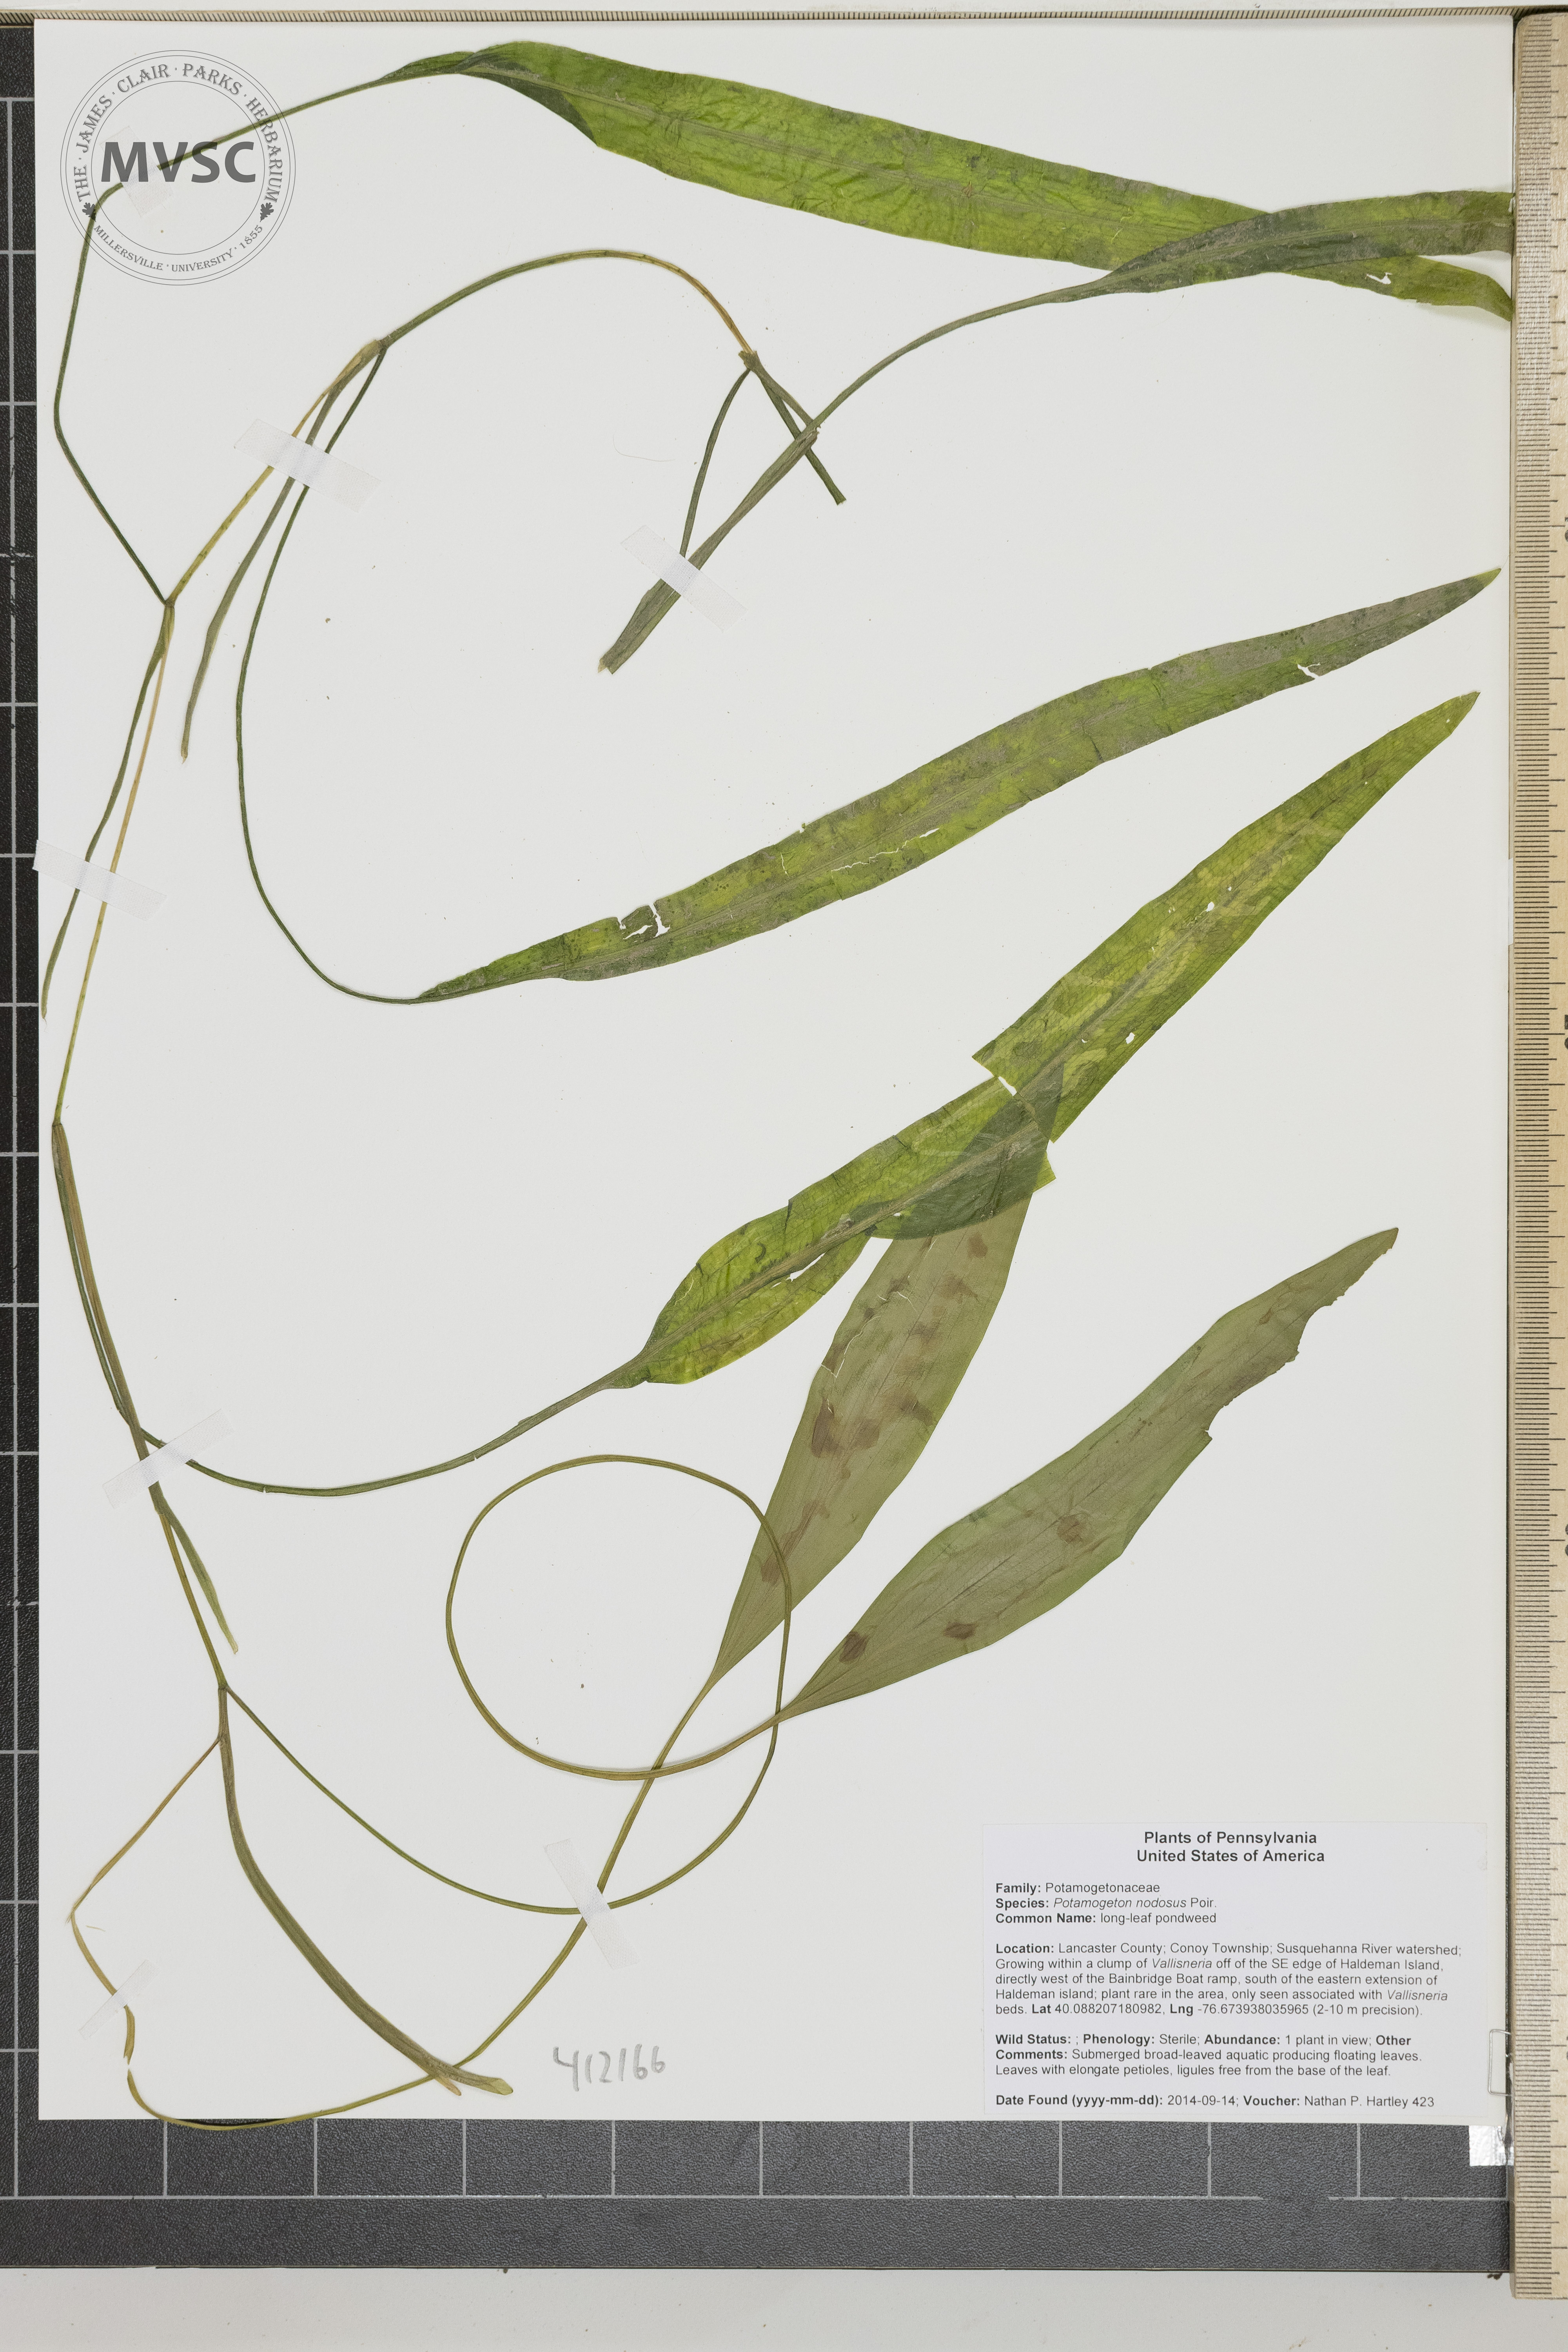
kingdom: Plantae
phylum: Tracheophyta
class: Liliopsida
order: Alismatales
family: Potamogetonaceae
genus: Potamogeton
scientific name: Potamogeton nodosus
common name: longleaf pondweed
